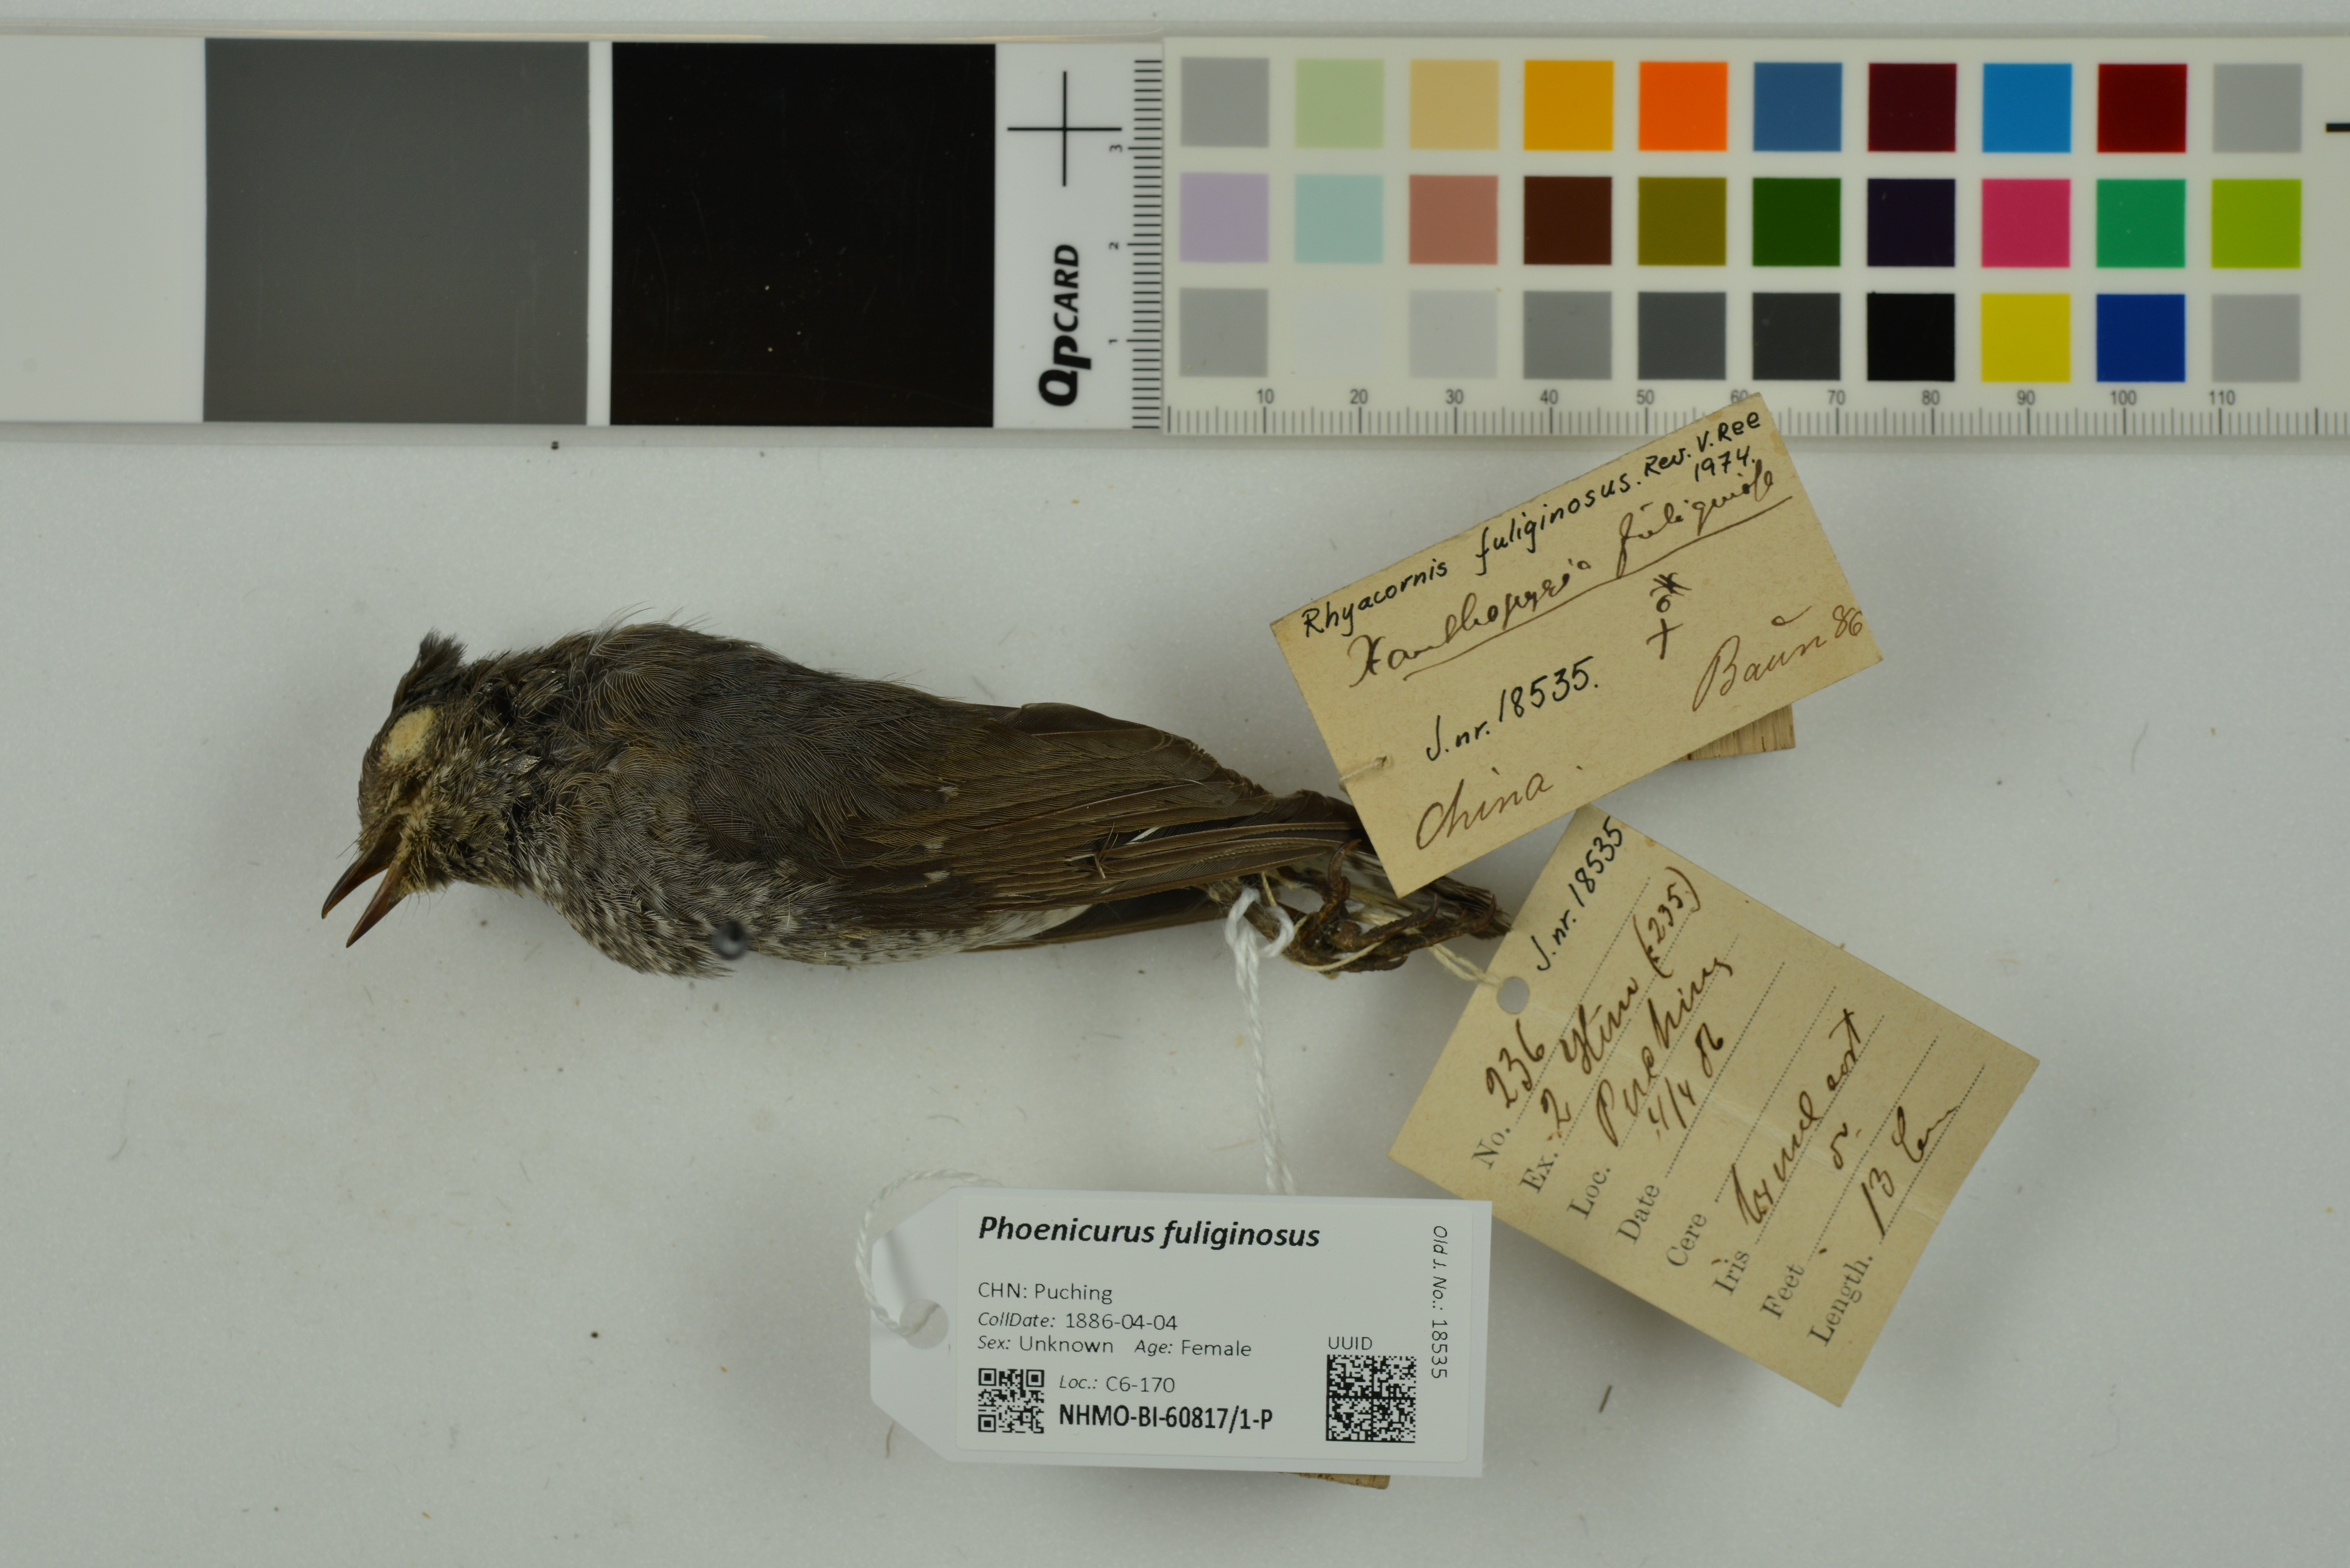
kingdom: Animalia
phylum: Chordata
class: Aves
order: Passeriformes
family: Muscicapidae
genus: Phoenicurus
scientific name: Phoenicurus fuliginosus
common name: Plumbeous water redstart
